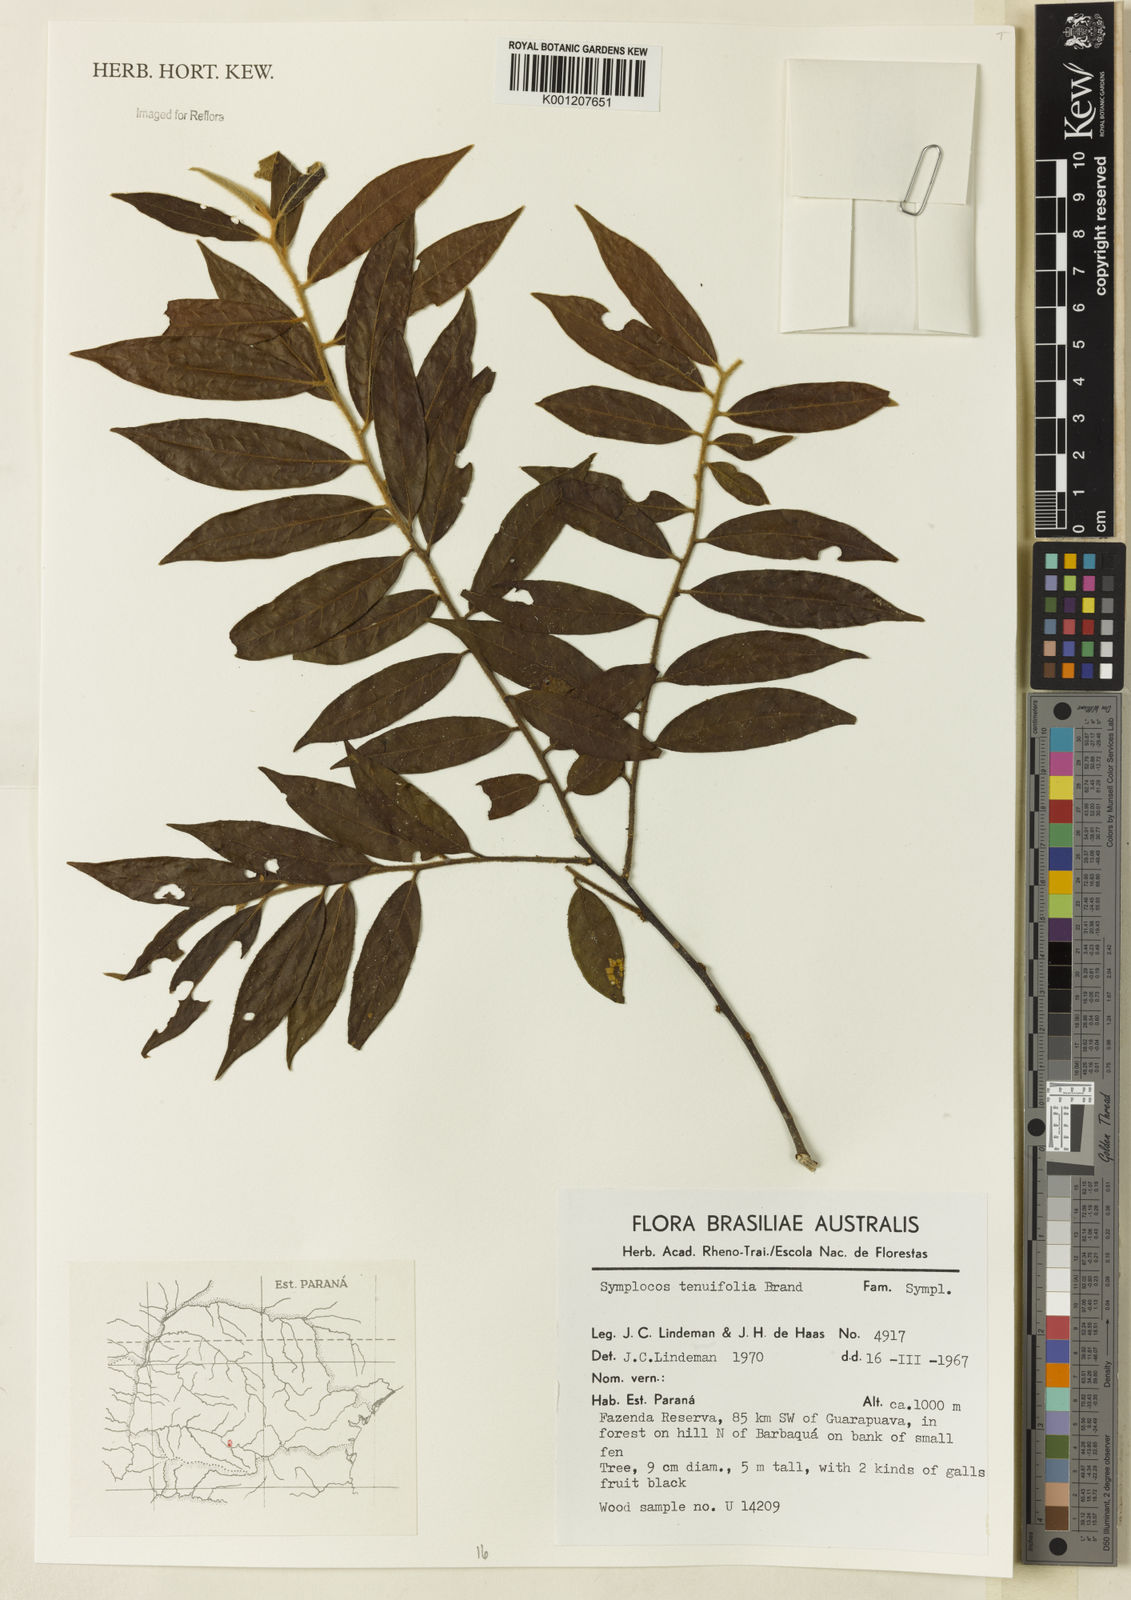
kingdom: Plantae
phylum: Tracheophyta
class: Magnoliopsida
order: Ericales
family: Symplocaceae
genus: Symplocos
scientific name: Symplocos tenuifolia
